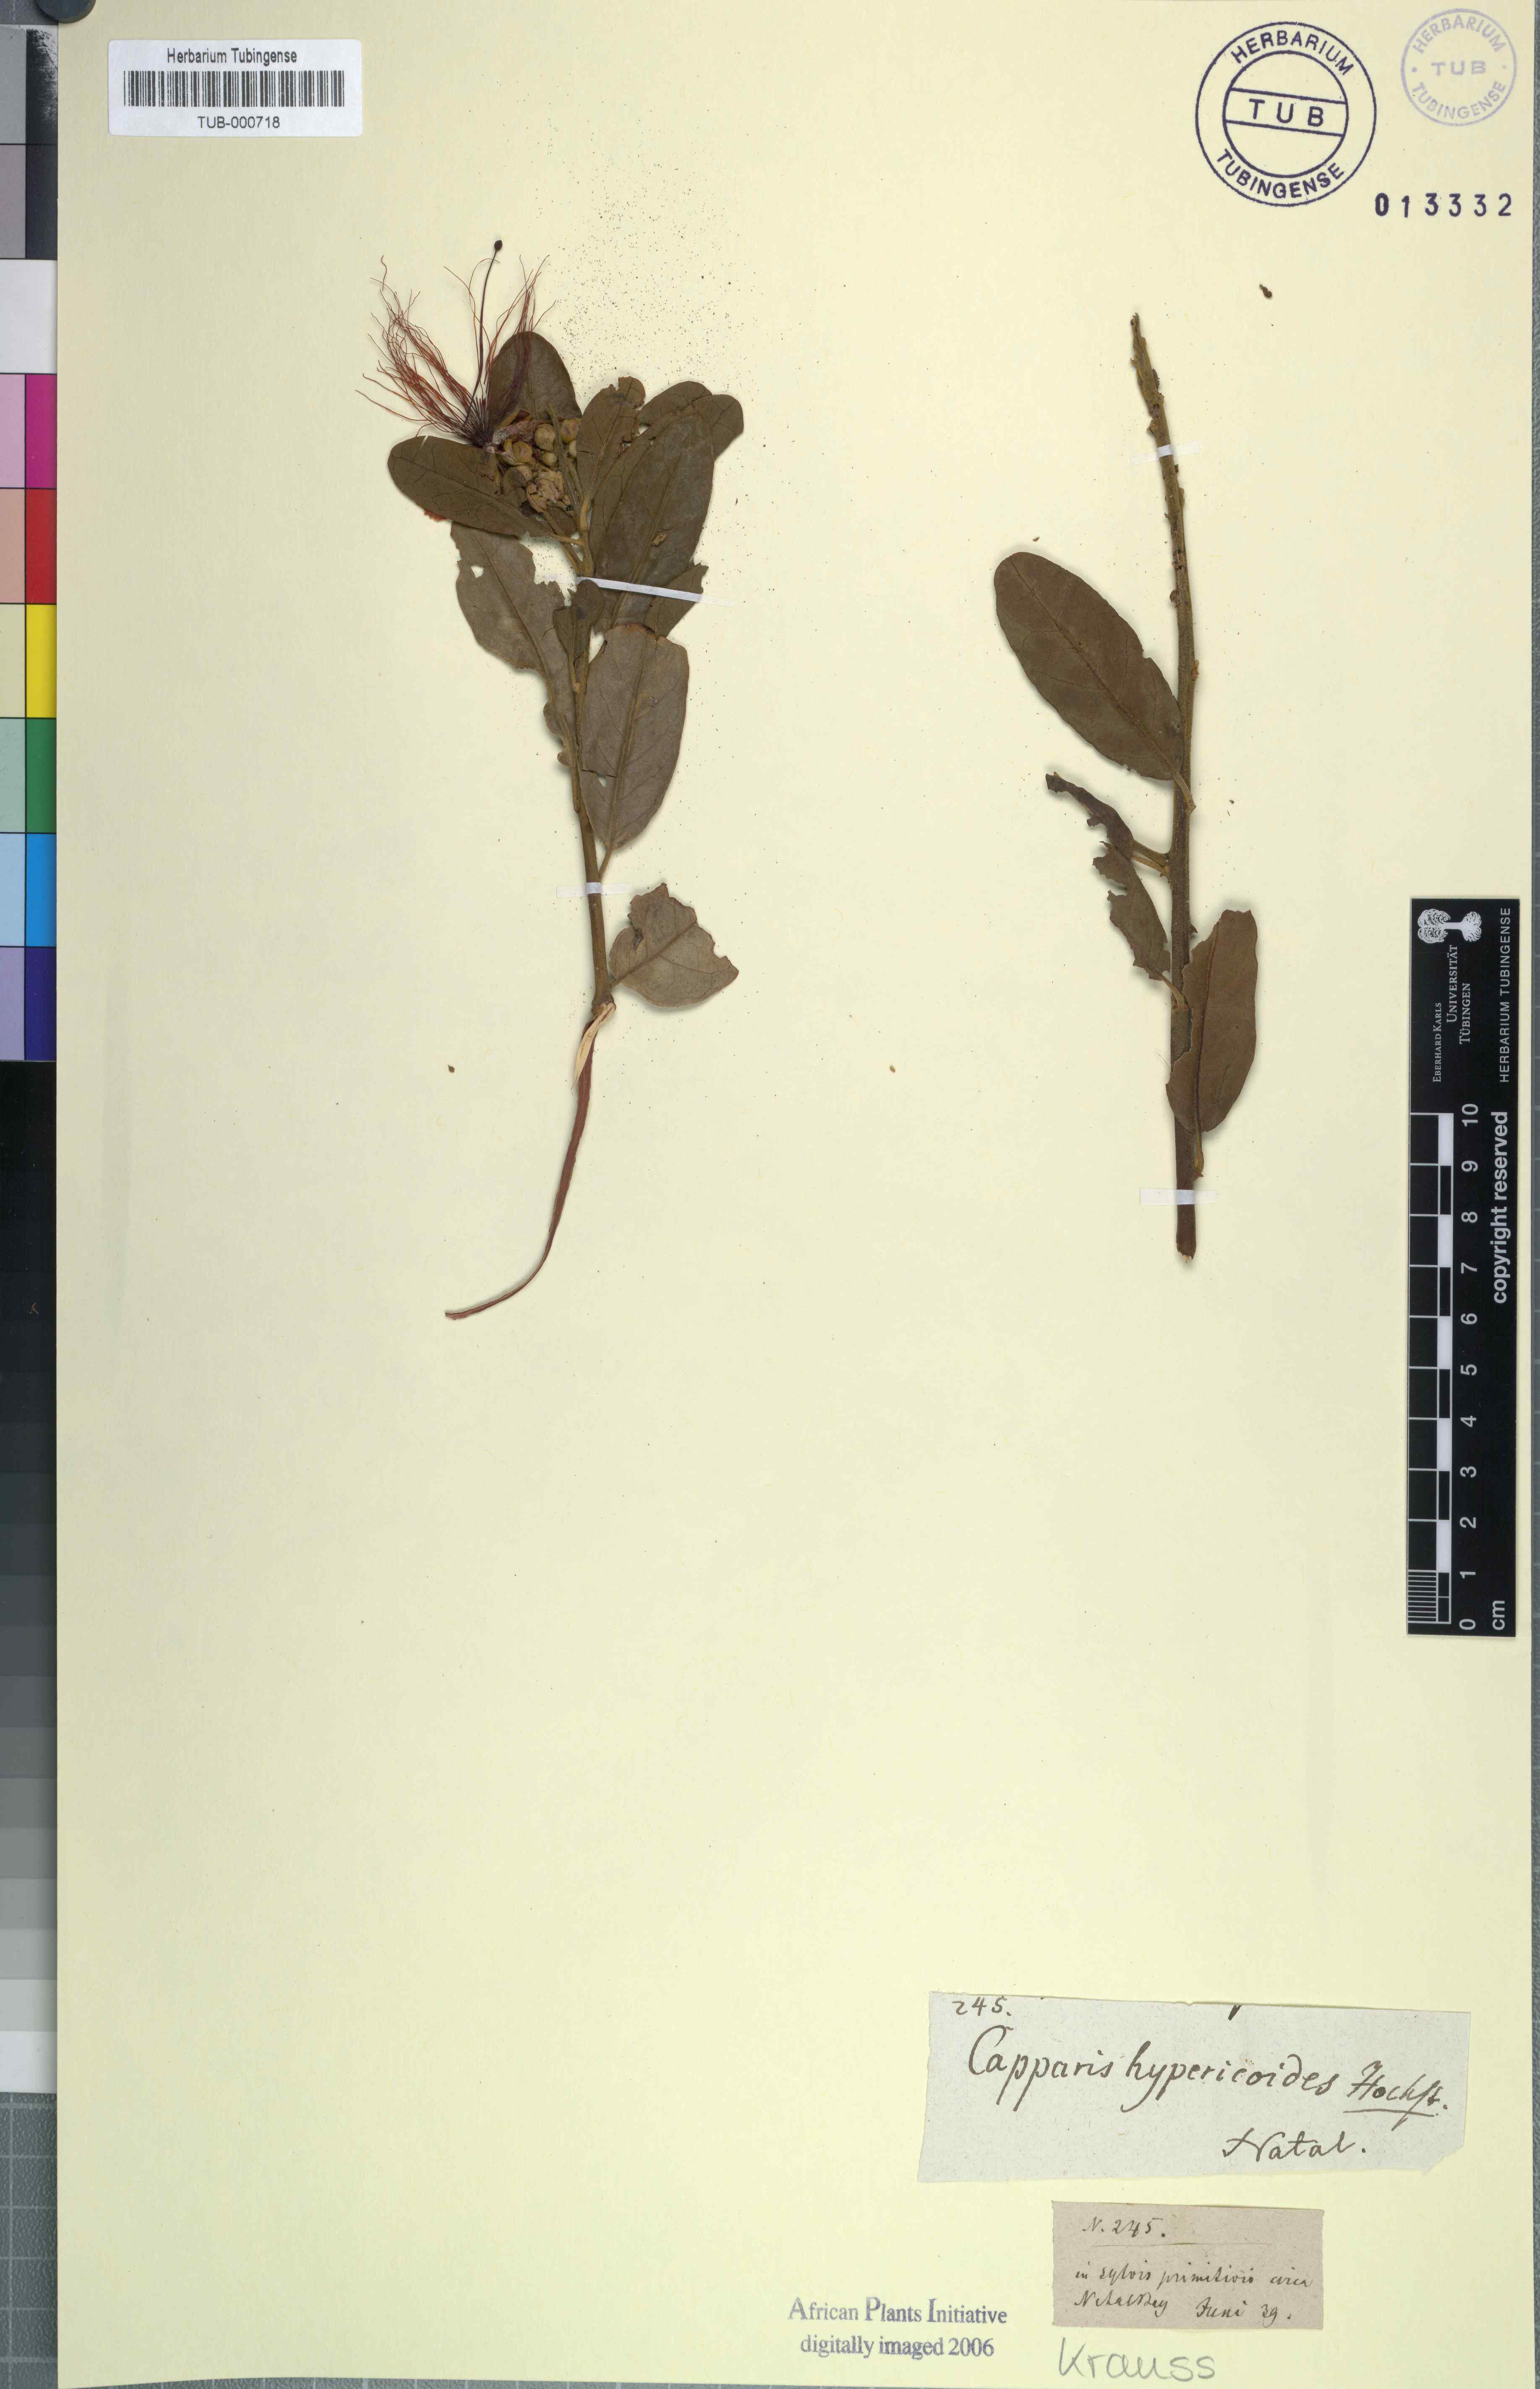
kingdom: Plantae
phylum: Tracheophyta
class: Magnoliopsida
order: Brassicales
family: Capparaceae
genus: Capparis
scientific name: Capparis tomentosa
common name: African caper
